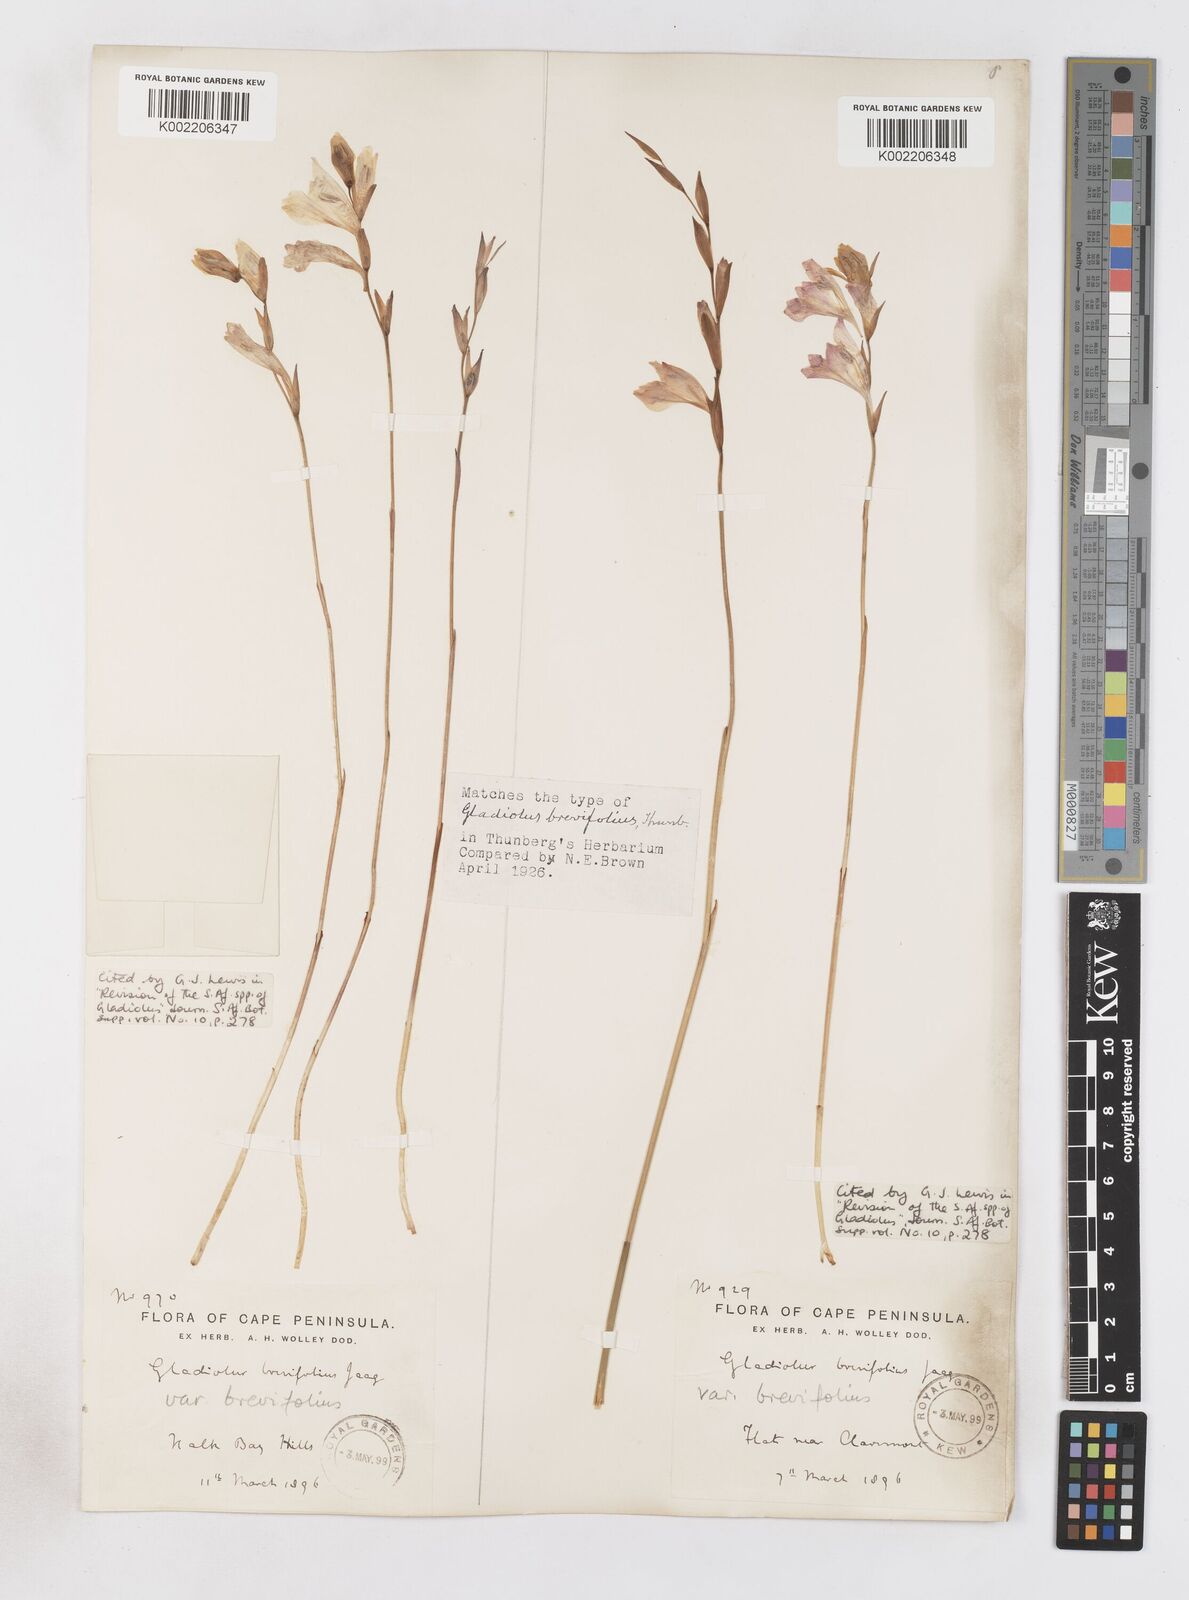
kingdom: Plantae
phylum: Tracheophyta
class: Liliopsida
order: Asparagales
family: Iridaceae
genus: Gladiolus
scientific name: Gladiolus brevifolius
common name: March pypie
